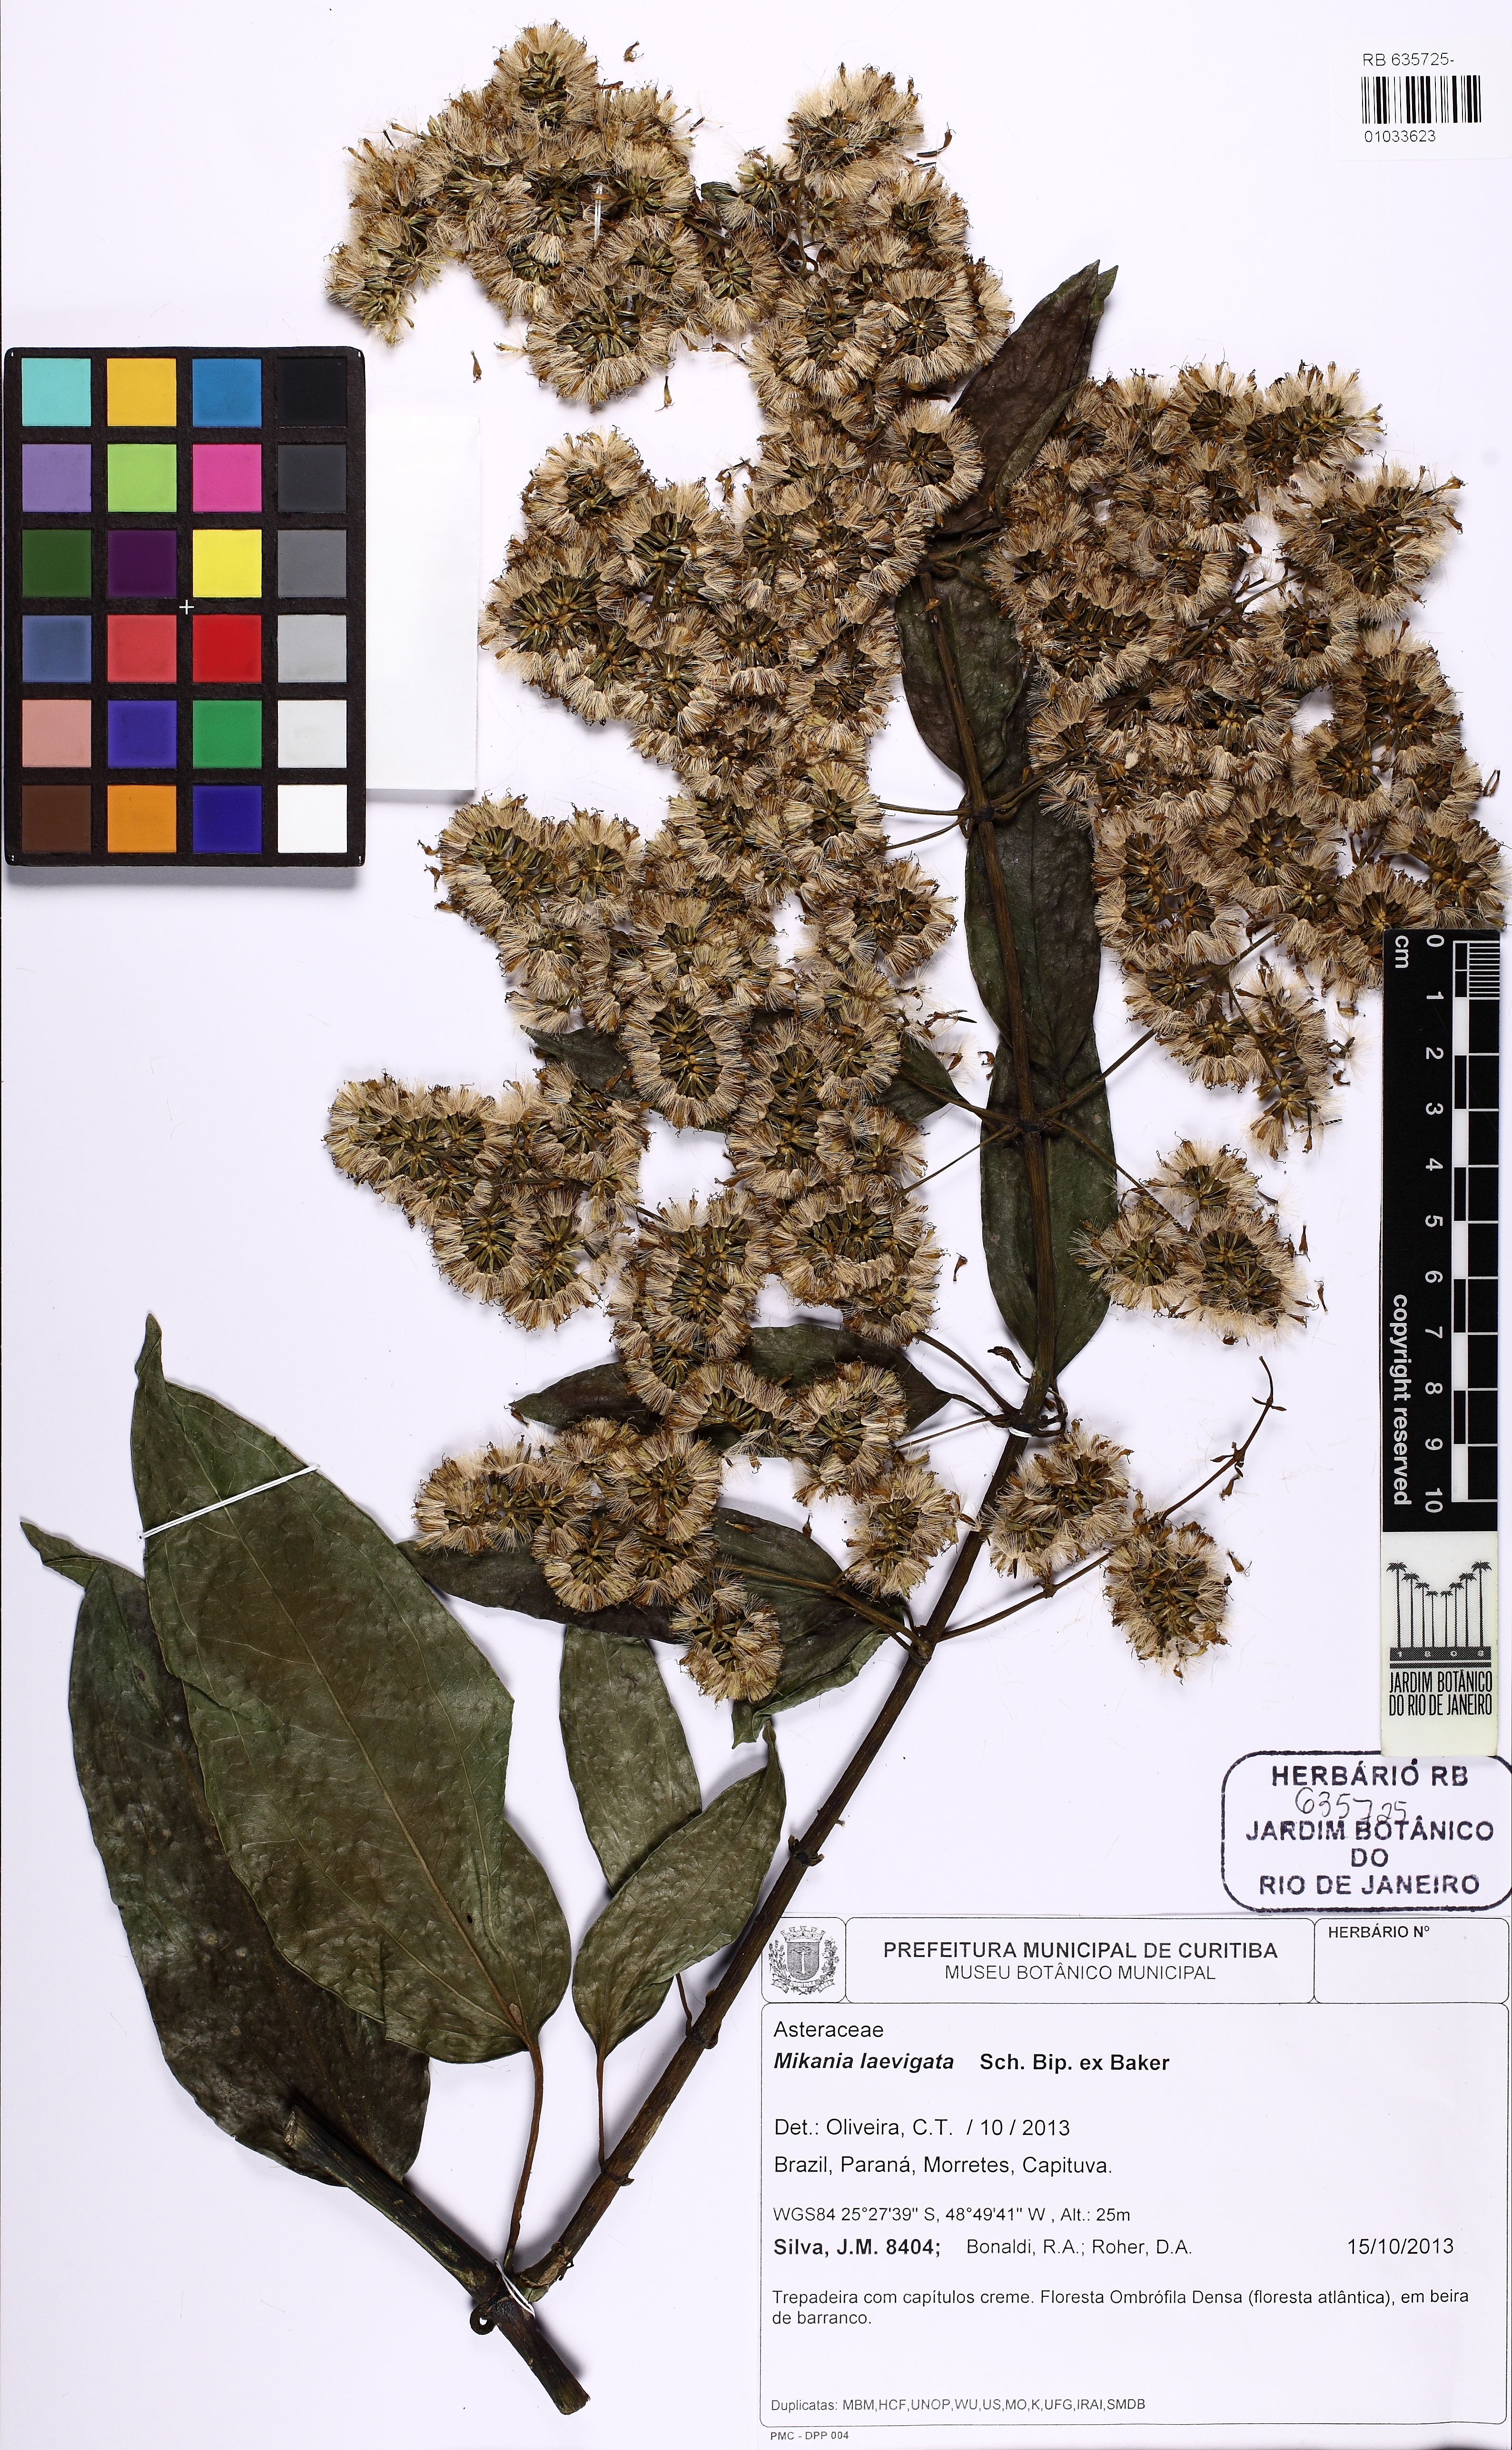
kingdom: Plantae
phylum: Tracheophyta
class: Magnoliopsida
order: Asterales
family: Asteraceae
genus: Mikania
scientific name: Mikania laevigata
